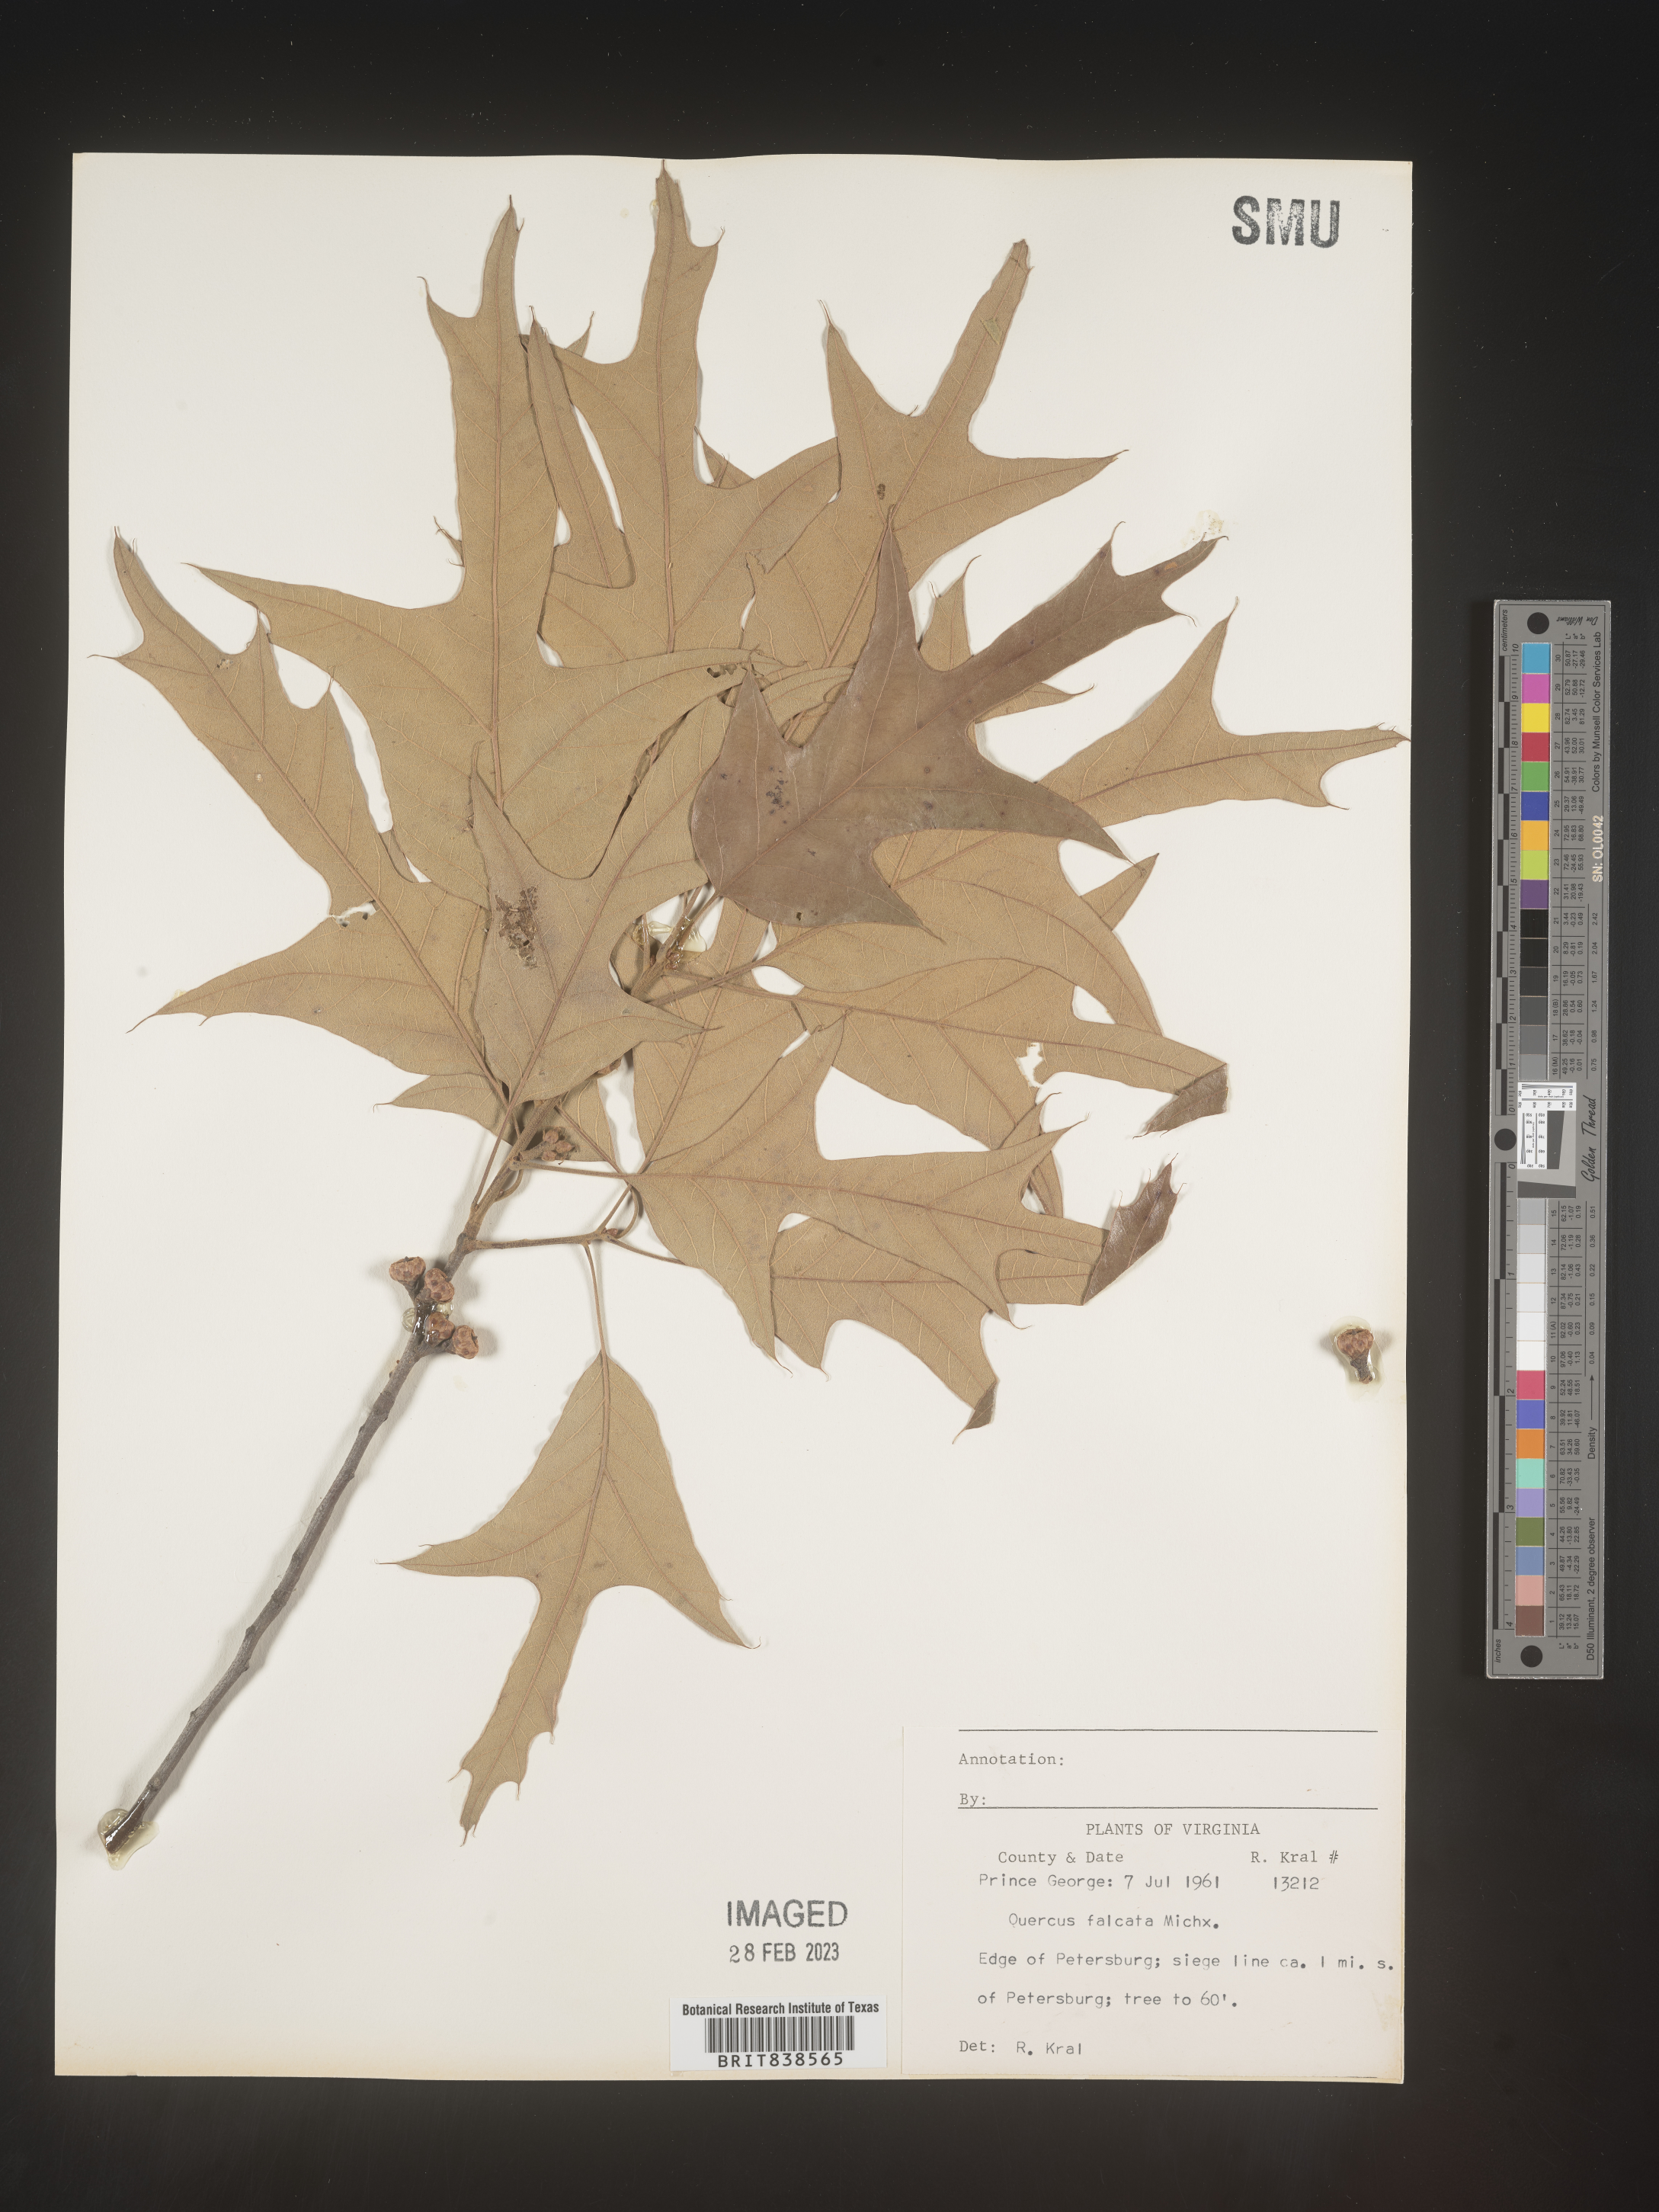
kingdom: Plantae
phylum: Tracheophyta
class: Magnoliopsida
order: Fagales
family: Fagaceae
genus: Quercus
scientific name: Quercus falcata
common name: Southern red oak
